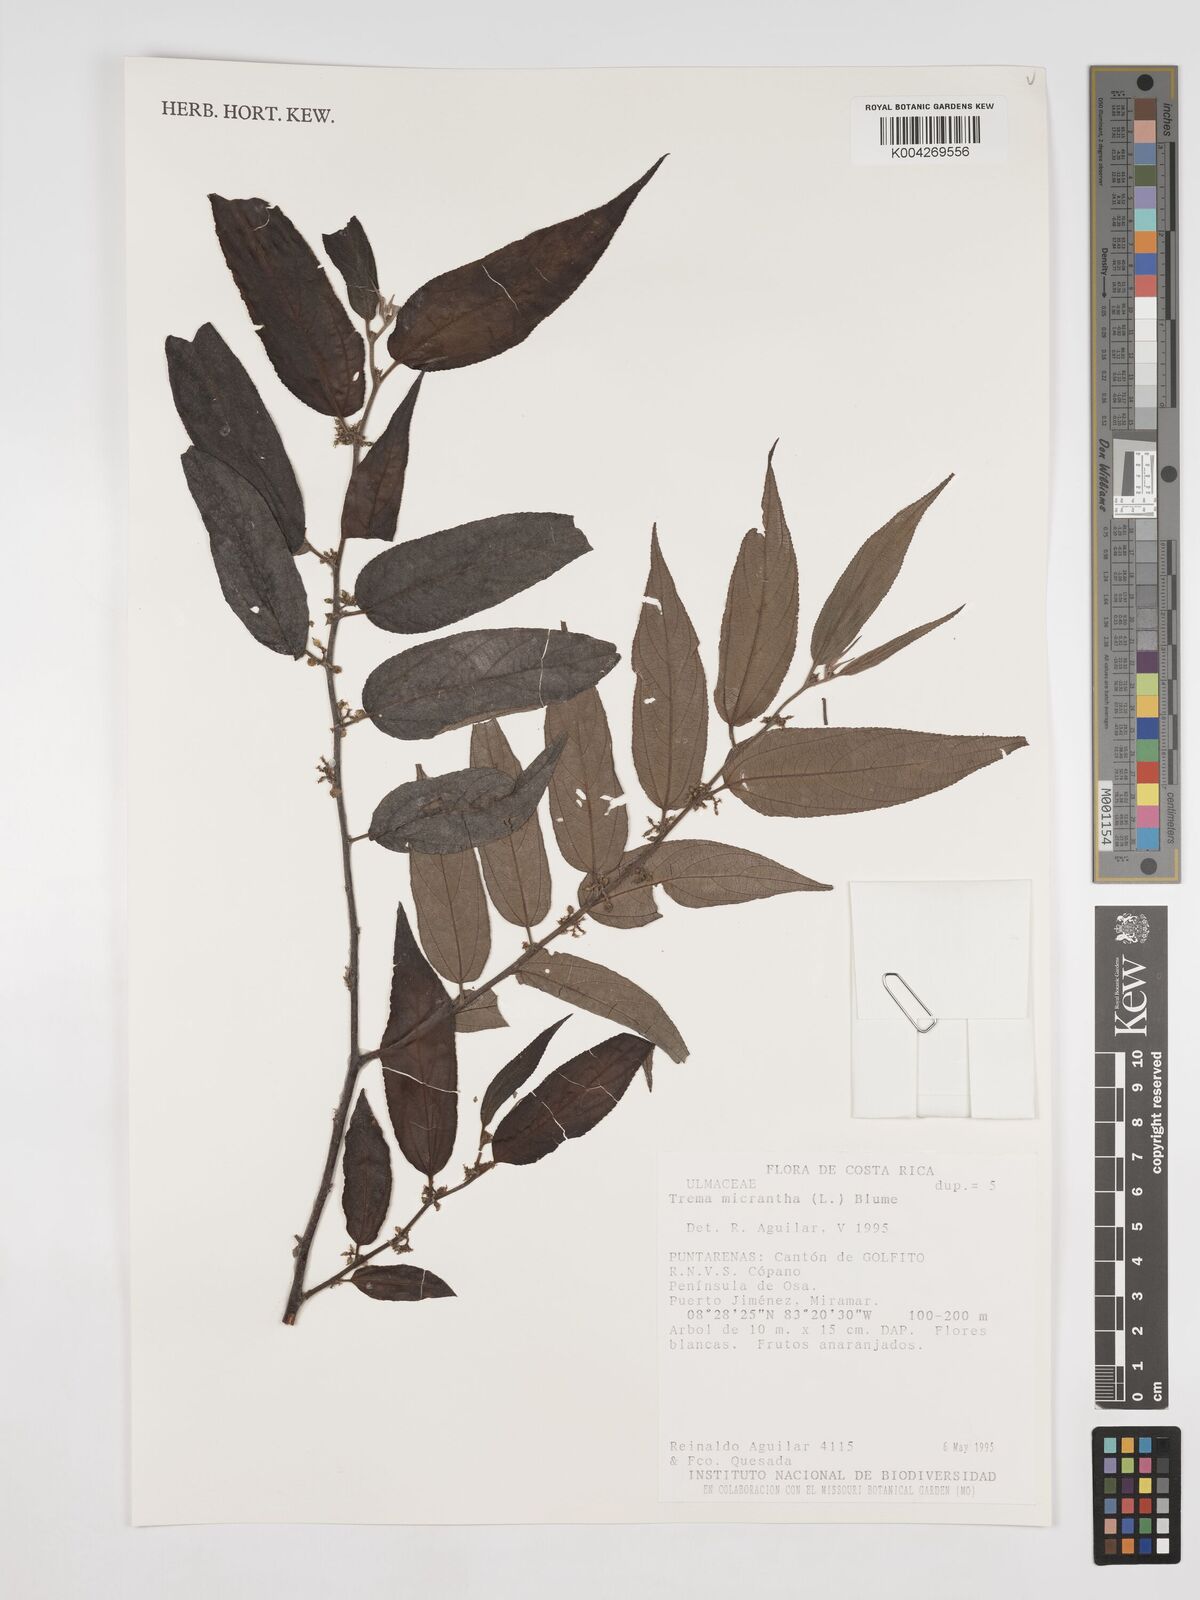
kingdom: Plantae
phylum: Tracheophyta
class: Magnoliopsida
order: Rosales
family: Cannabaceae
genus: Trema
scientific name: Trema micranthum
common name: Jamaican nettletree
